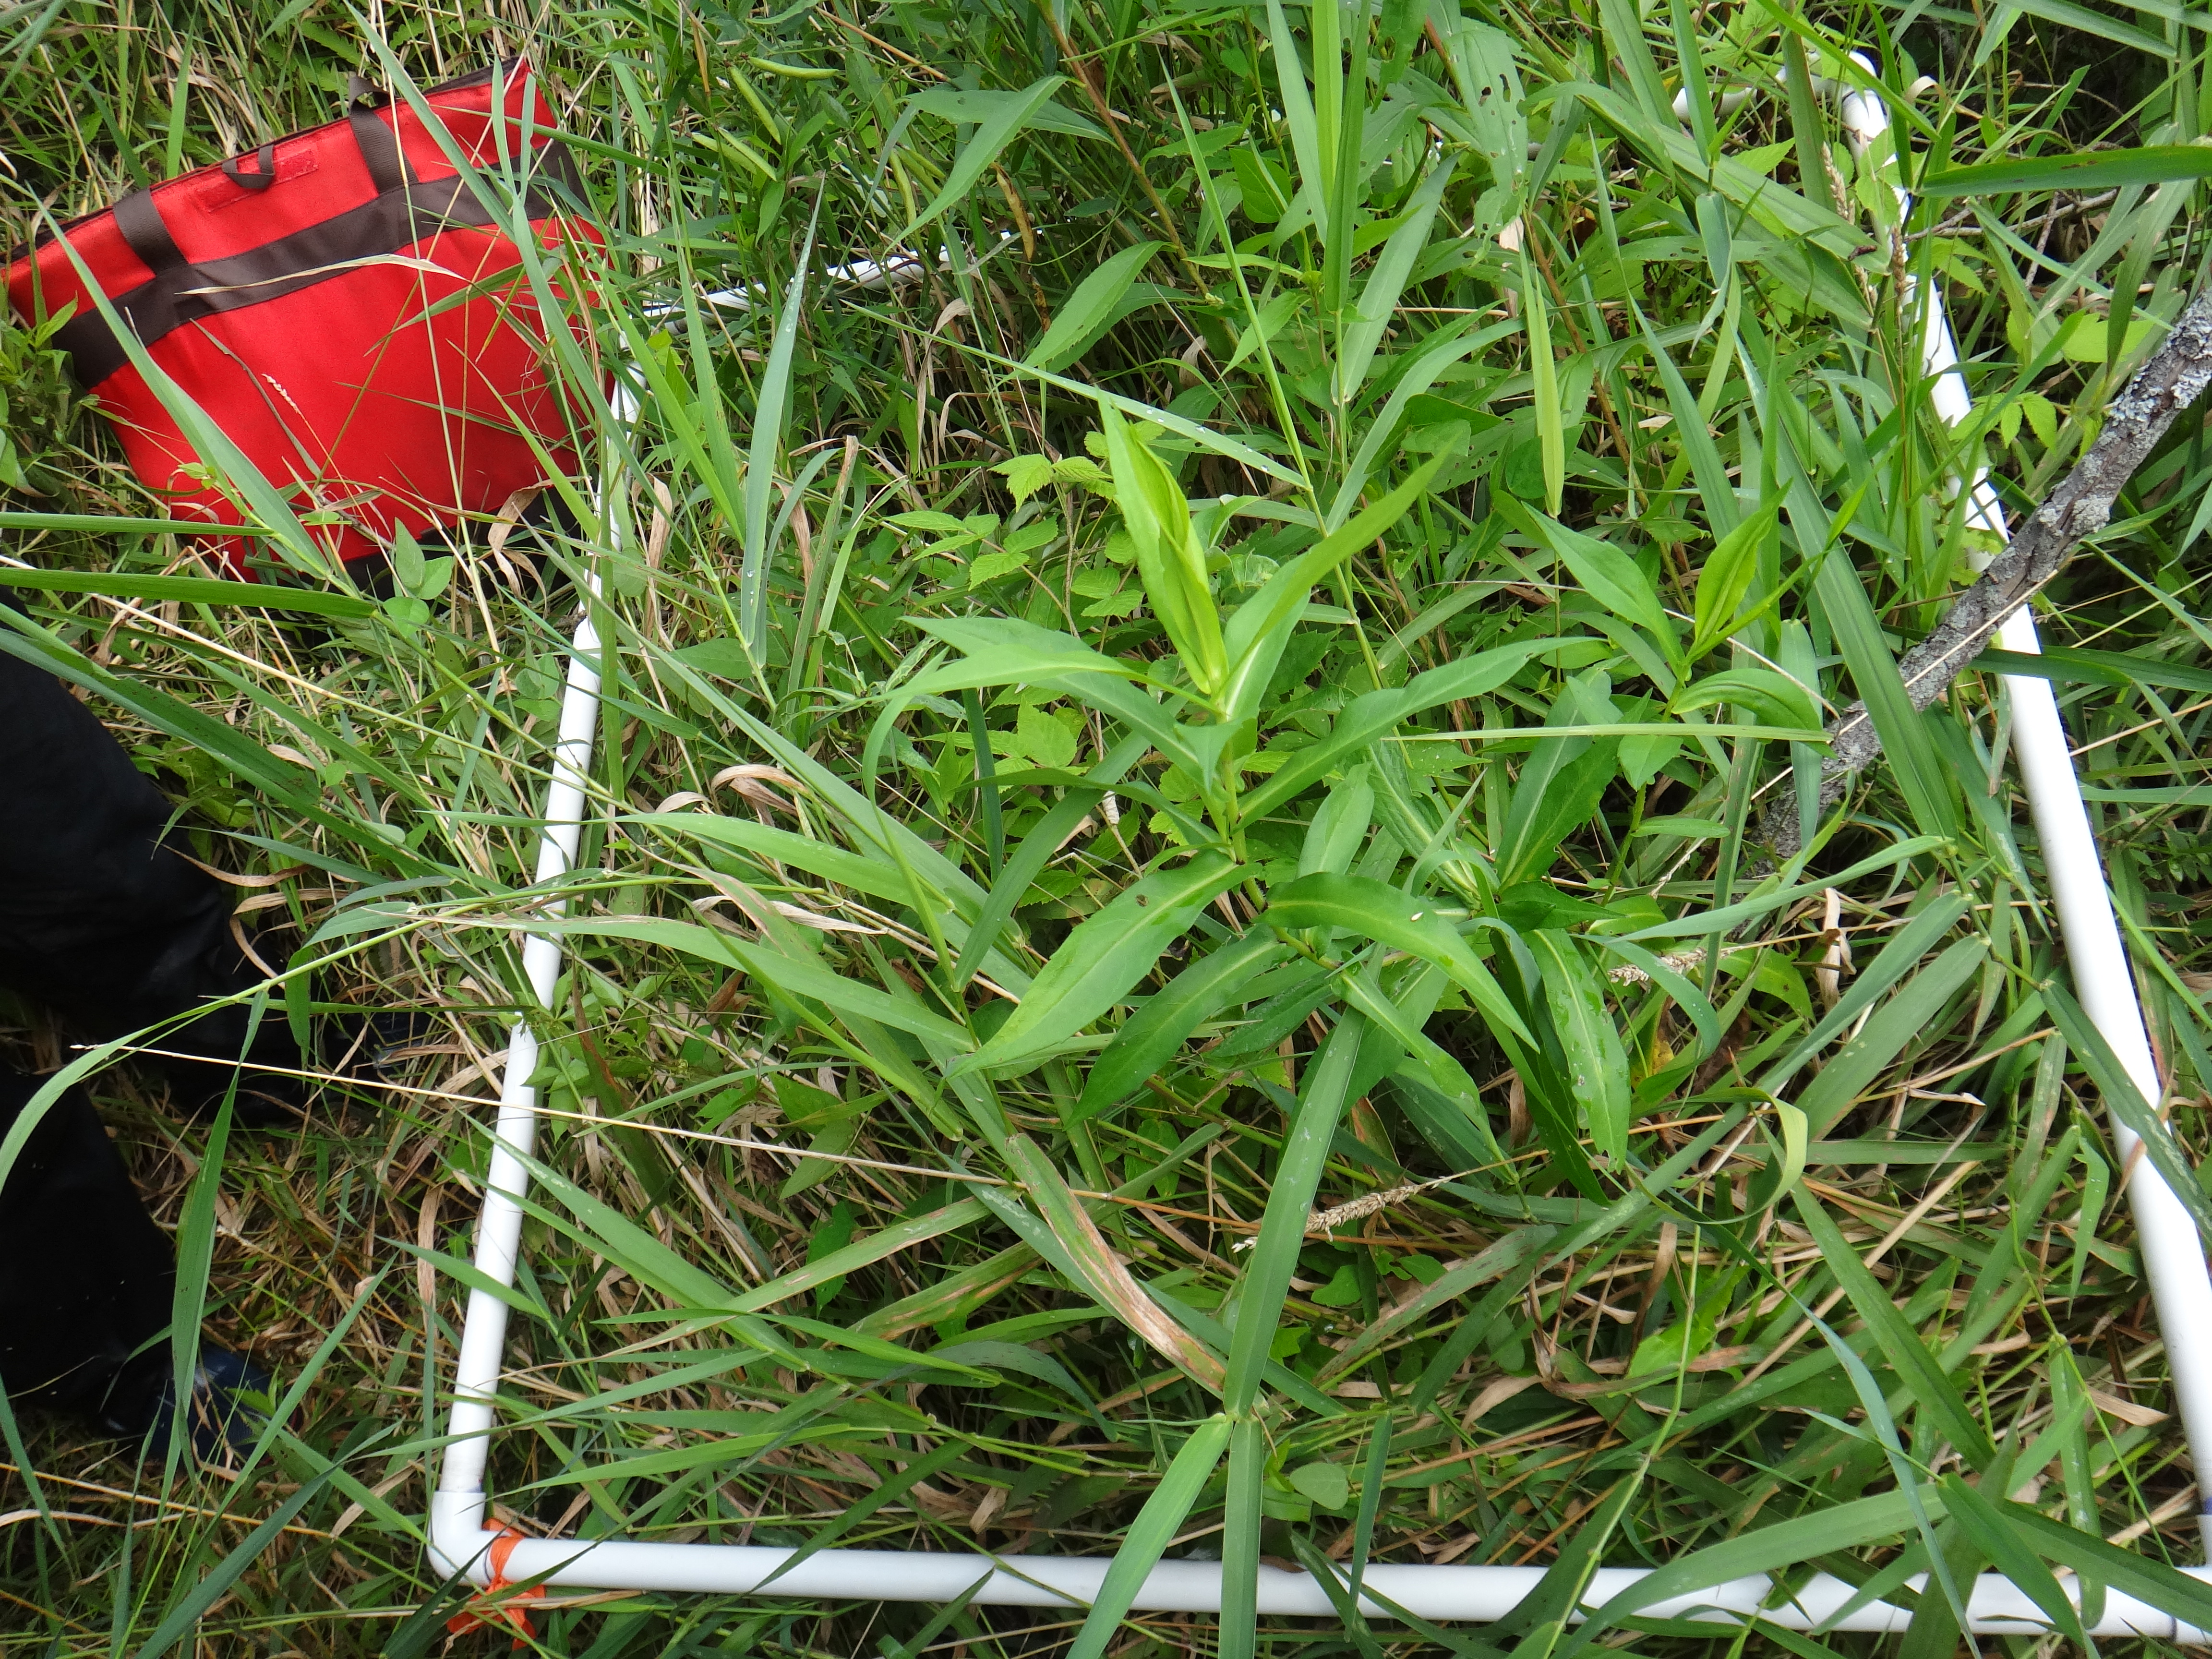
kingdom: Plantae
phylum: Tracheophyta
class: Polypodiopsida
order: Polypodiales
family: Onocleaceae
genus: Onoclea
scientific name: Onoclea sensibilis
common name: Sensitive fern
